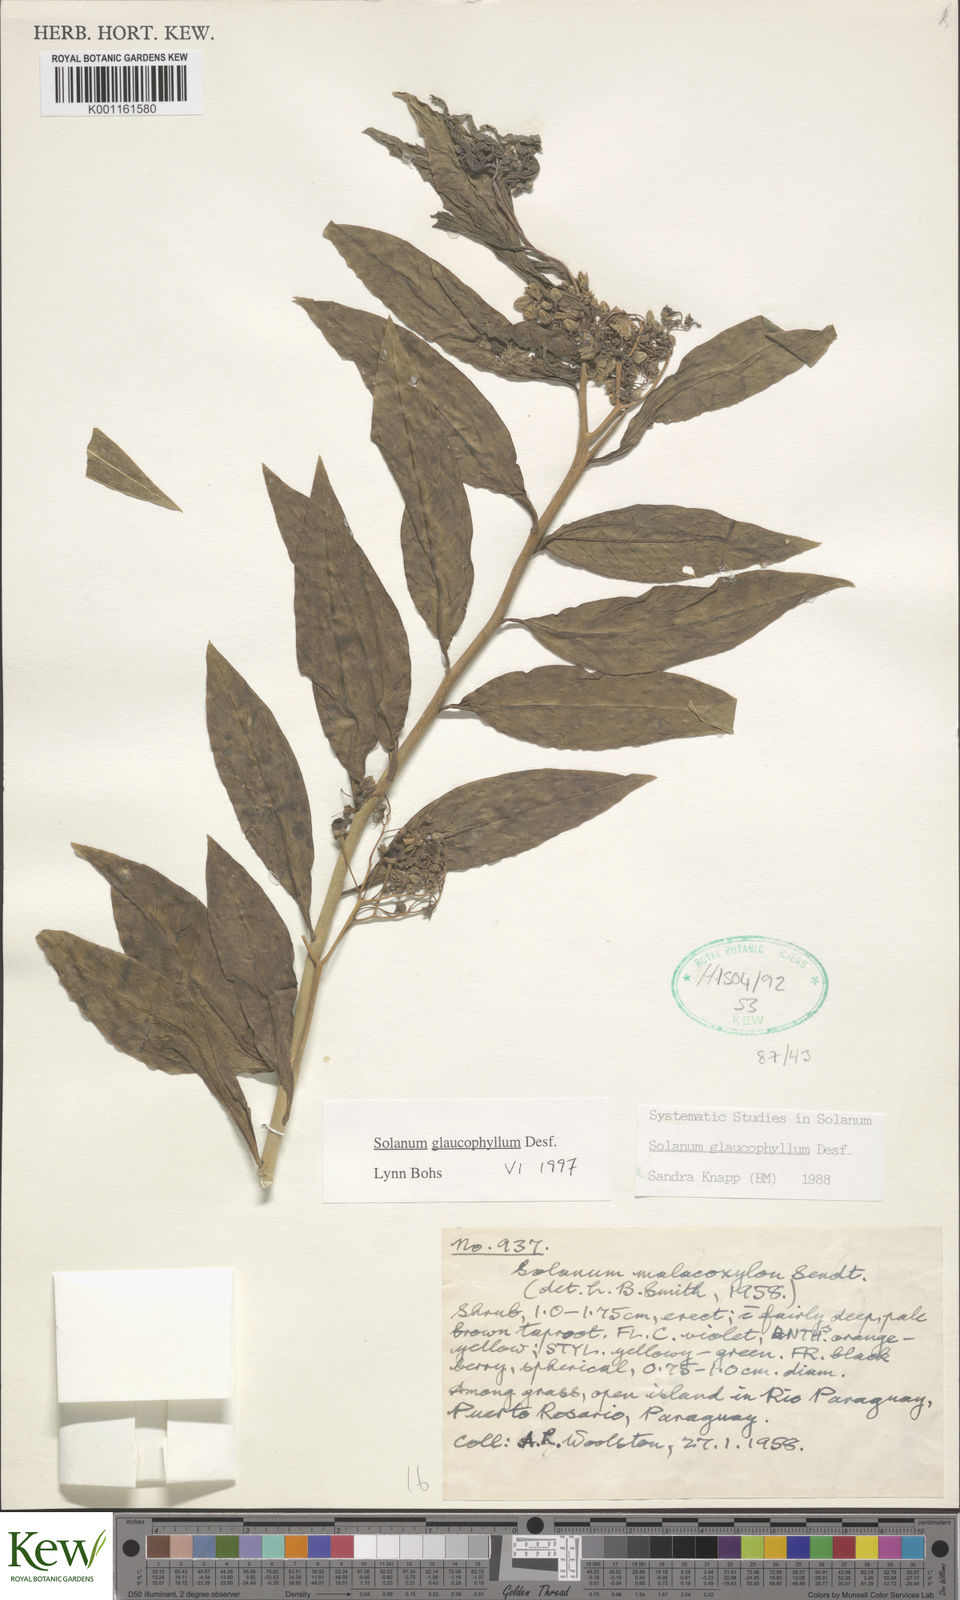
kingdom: Plantae
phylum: Tracheophyta
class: Magnoliopsida
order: Solanales
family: Solanaceae
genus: Solanum
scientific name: Solanum glaucophyllum
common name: Waxyleaf nightshade
